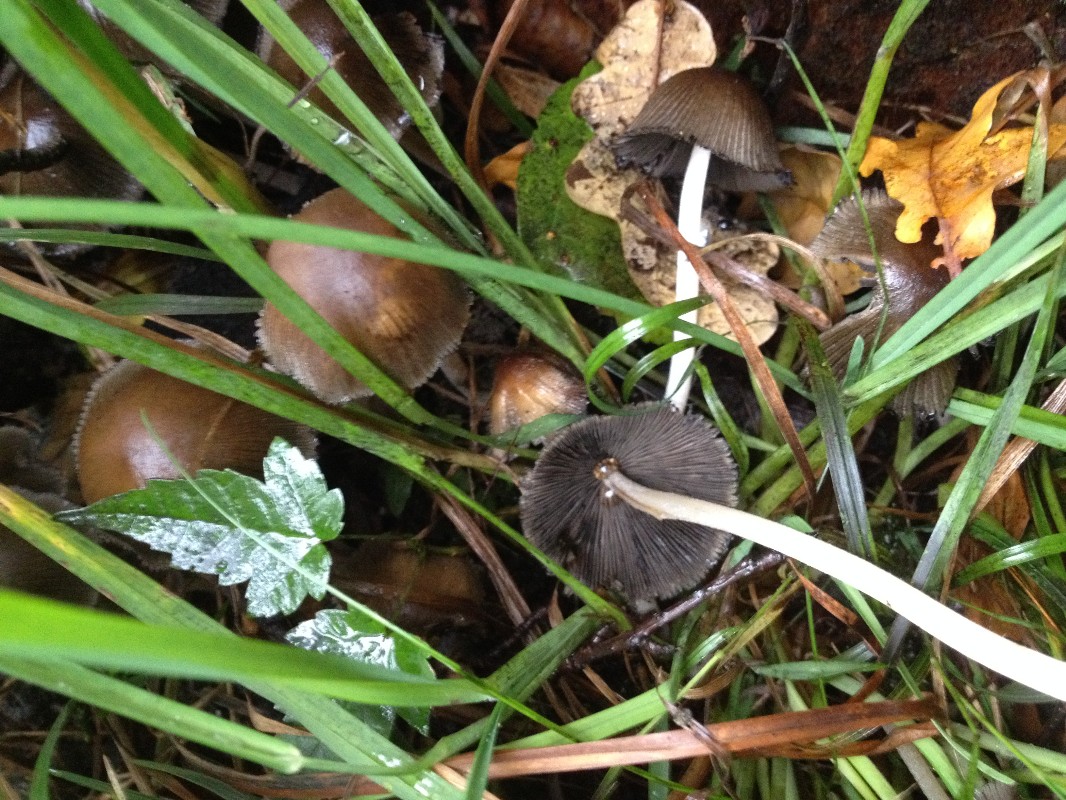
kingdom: Fungi
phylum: Basidiomycota
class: Agaricomycetes
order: Agaricales
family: Agaricaceae
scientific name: Agaricaceae
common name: champignonfamilien
